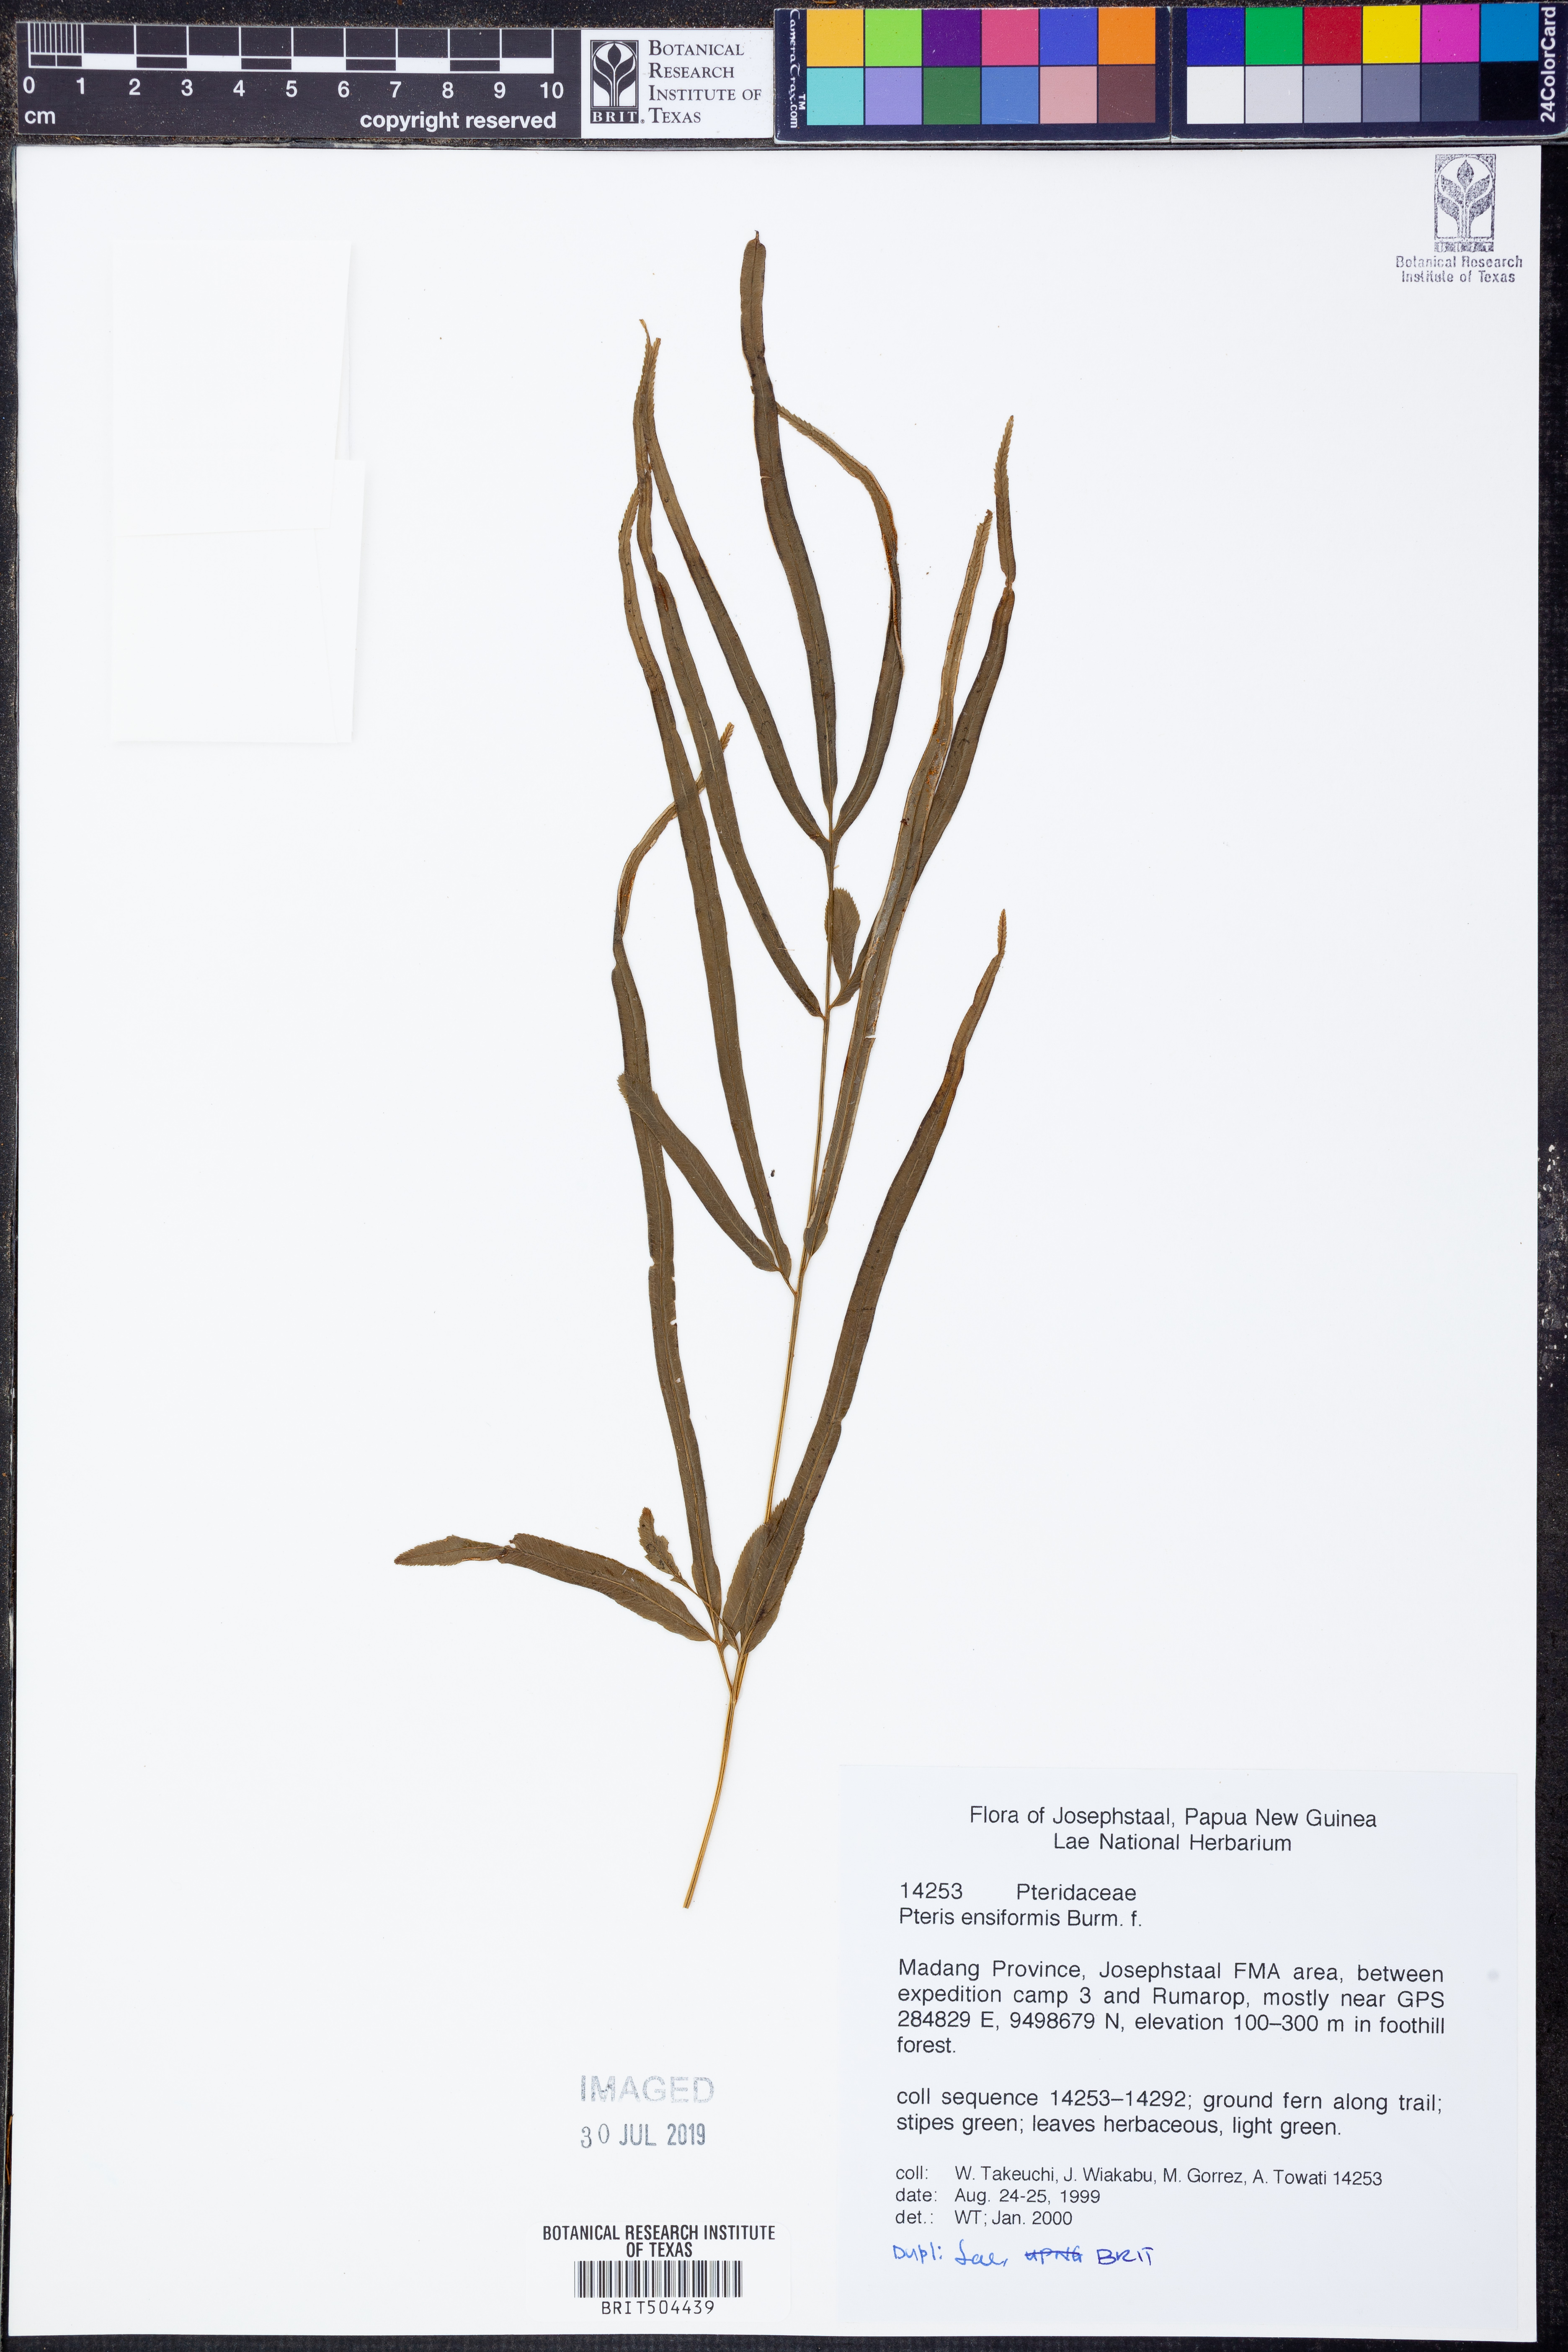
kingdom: Plantae
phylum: Tracheophyta
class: Polypodiopsida
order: Polypodiales
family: Pteridaceae
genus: Pteris
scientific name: Pteris ensiformis
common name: Sword brake
